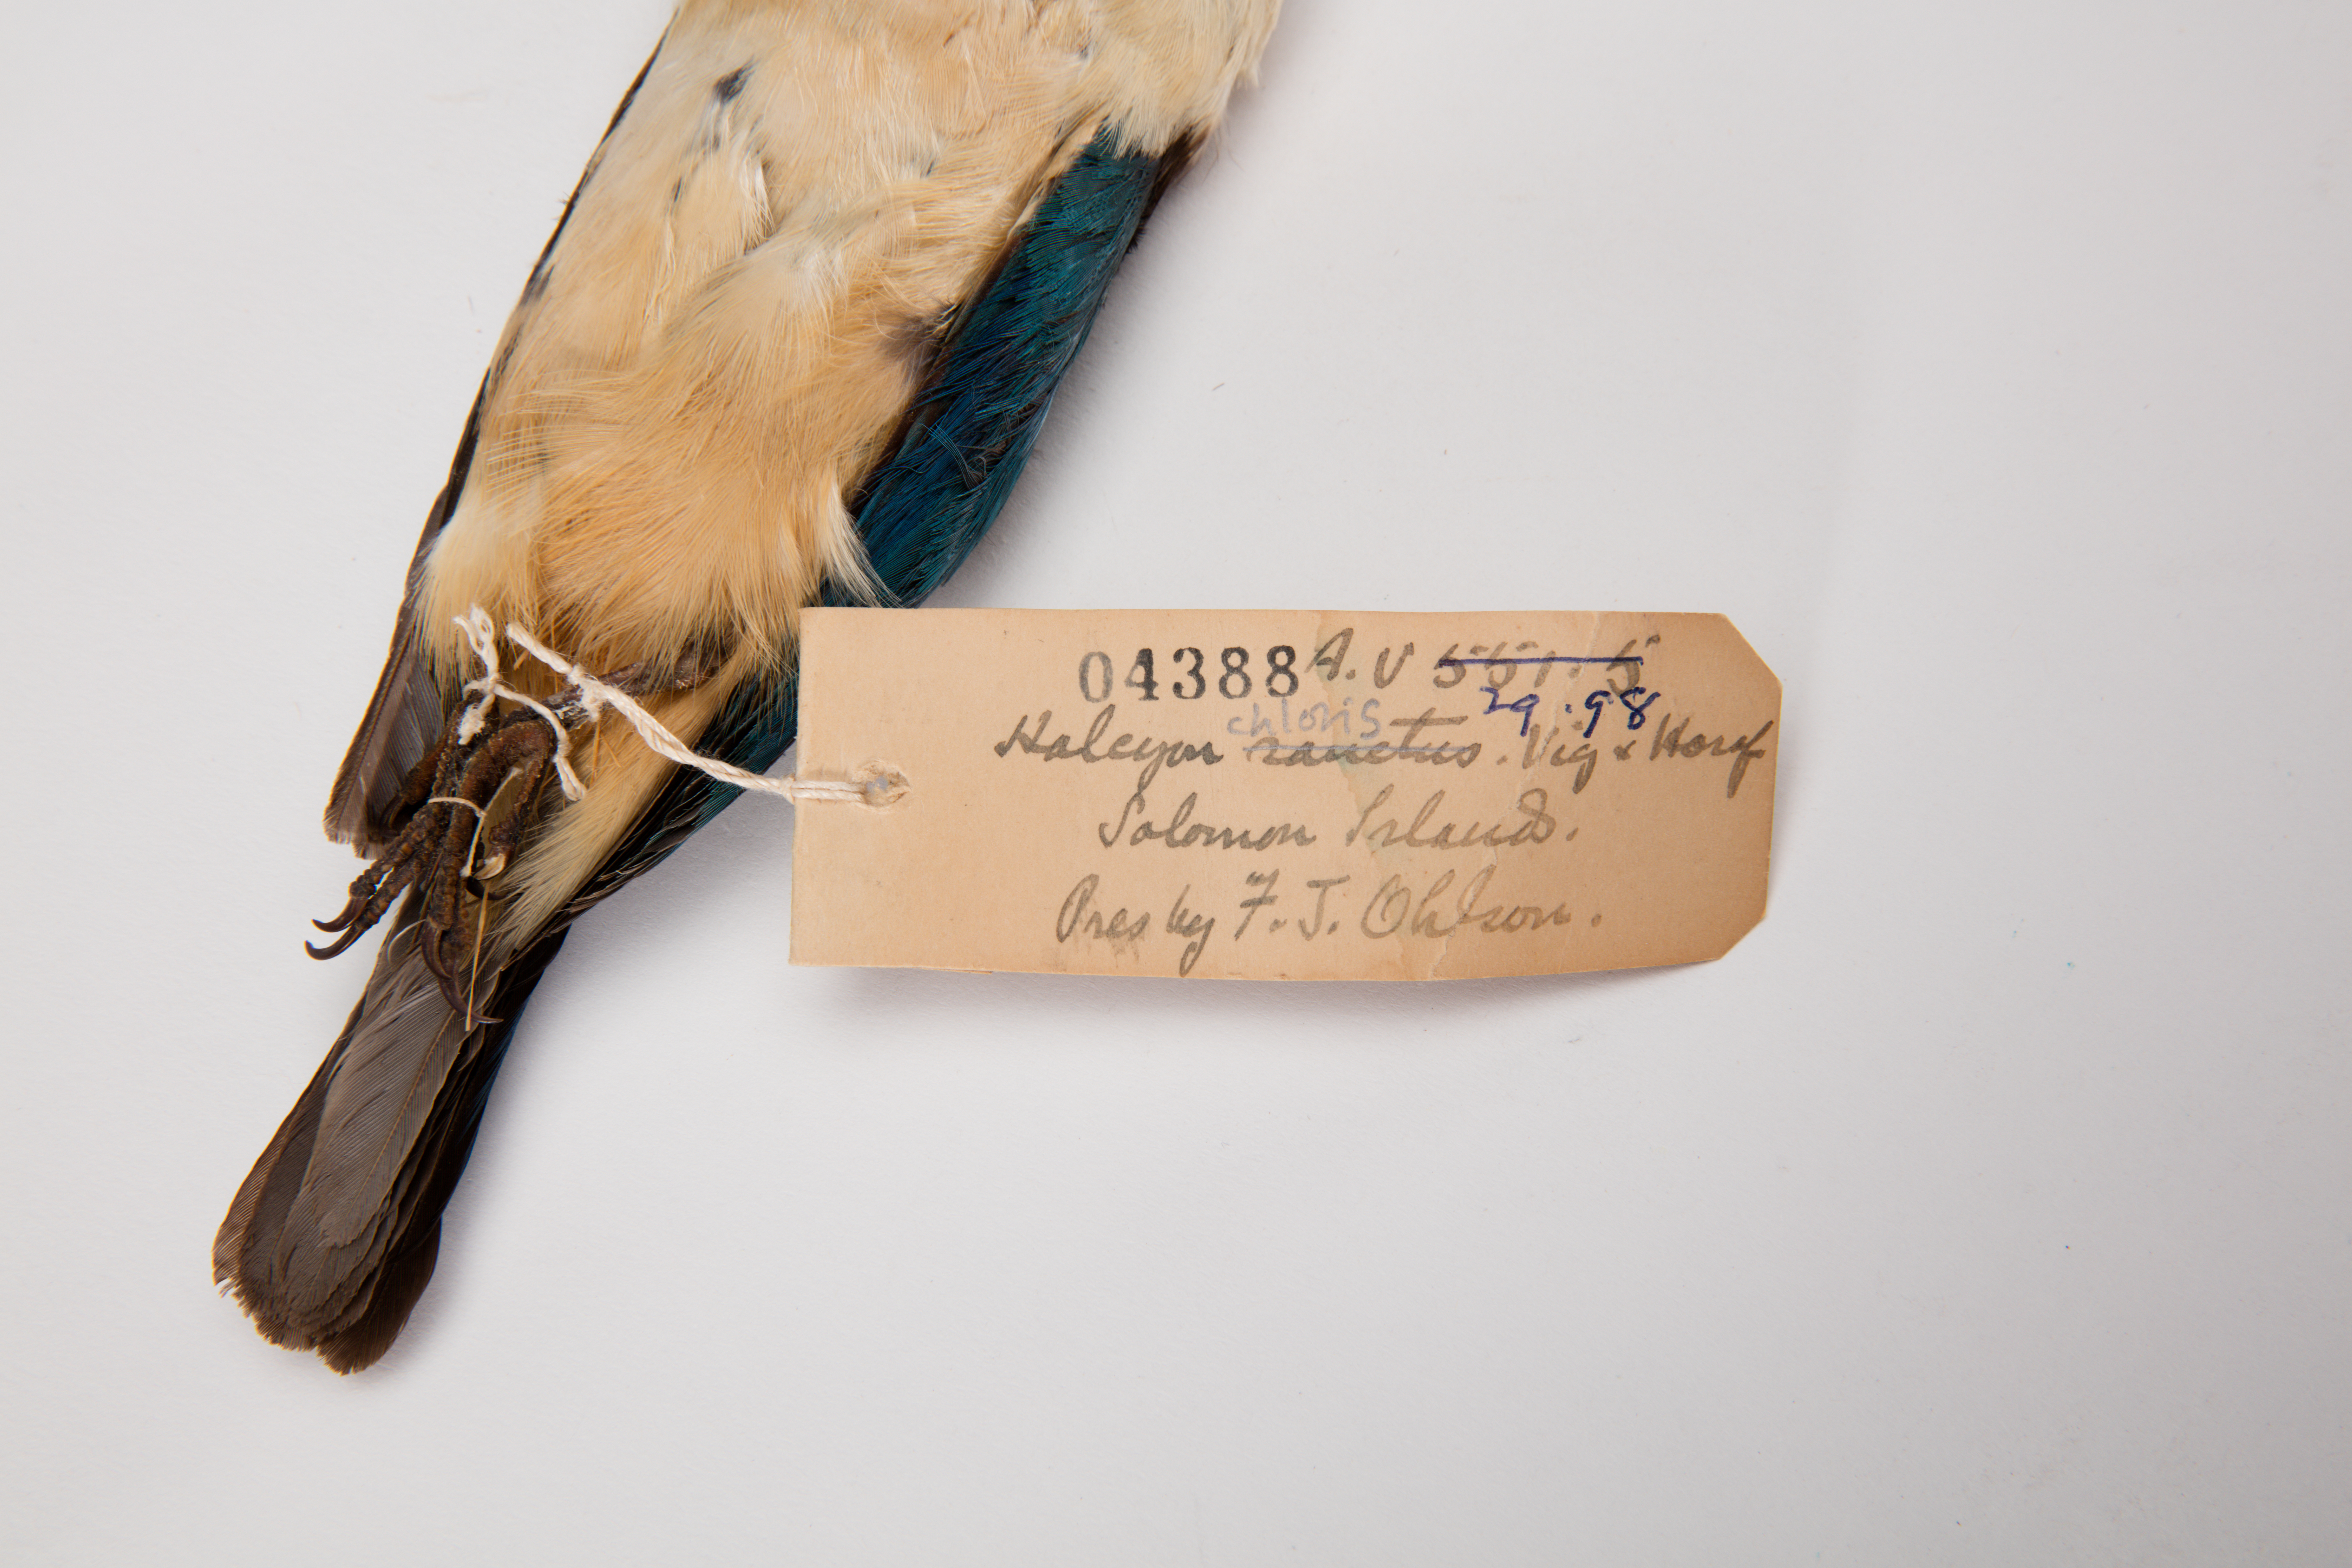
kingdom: Animalia
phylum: Chordata
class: Aves
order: Coraciiformes
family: Alcedinidae
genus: Todiramphus
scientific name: Todiramphus chloris
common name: Collared kingfisher
